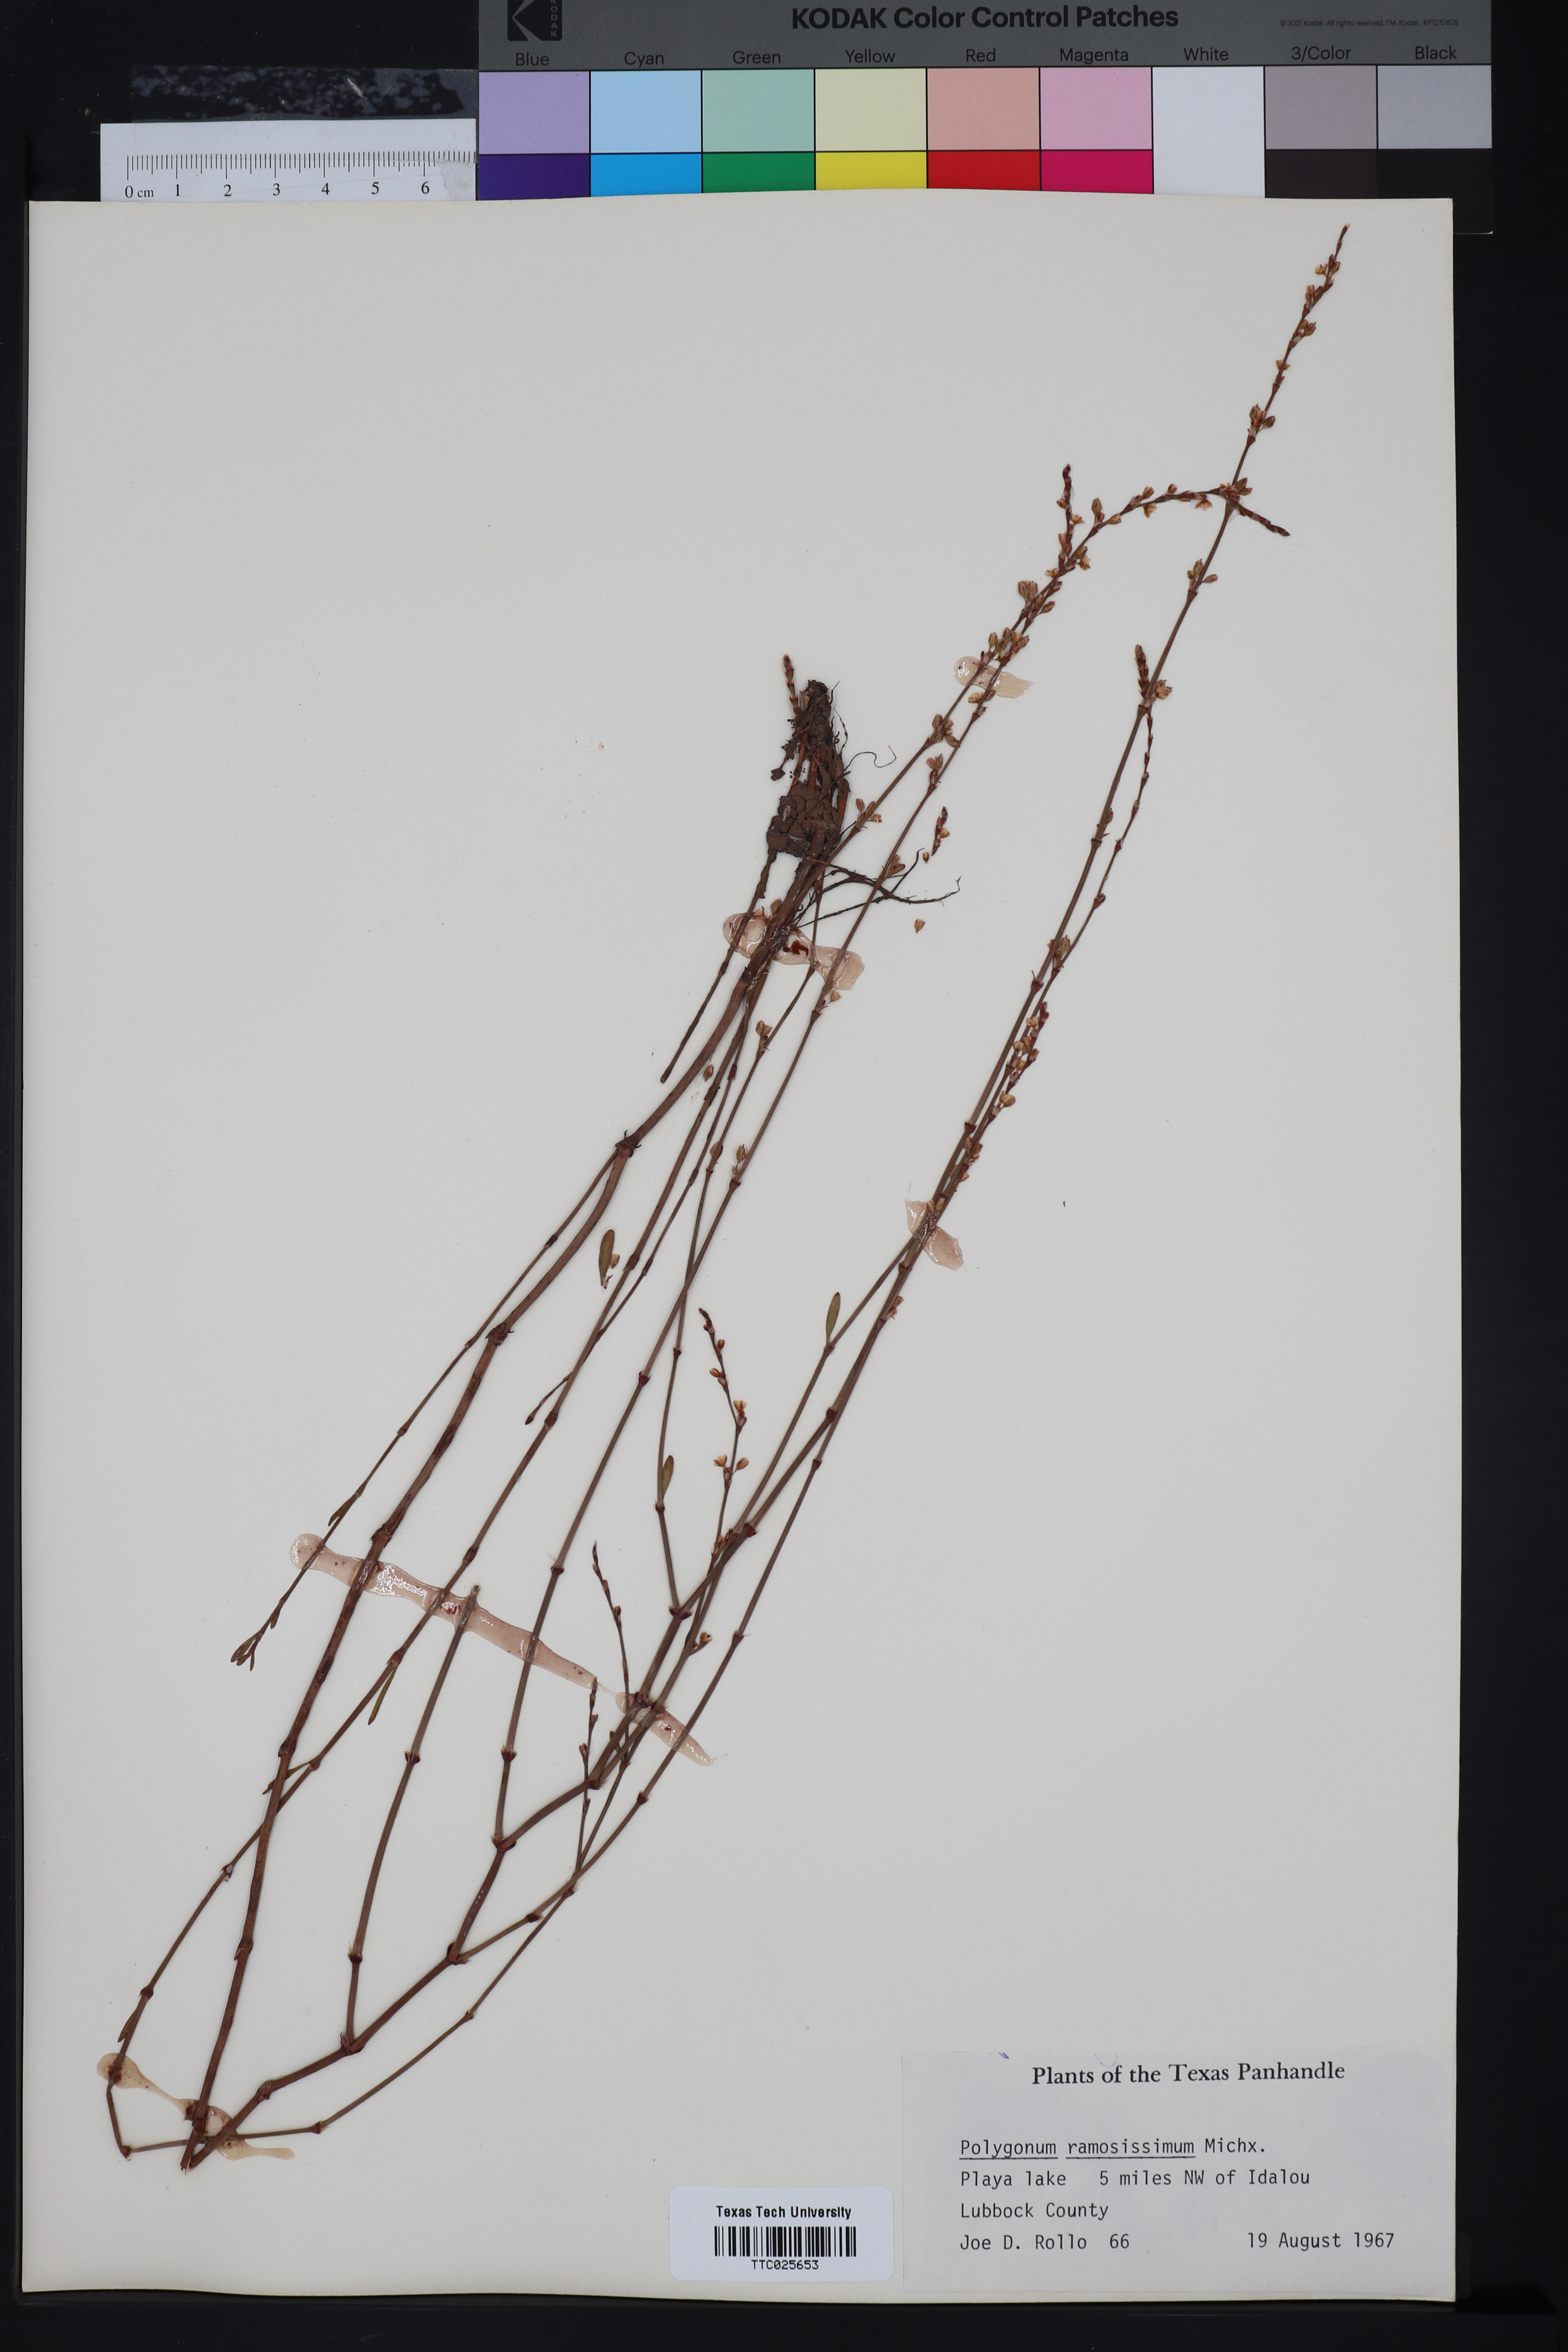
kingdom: Plantae
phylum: Tracheophyta
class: Magnoliopsida
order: Caryophyllales
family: Polygonaceae
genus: Polygonum
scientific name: Polygonum ramosissimum
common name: Bushy knotweed
